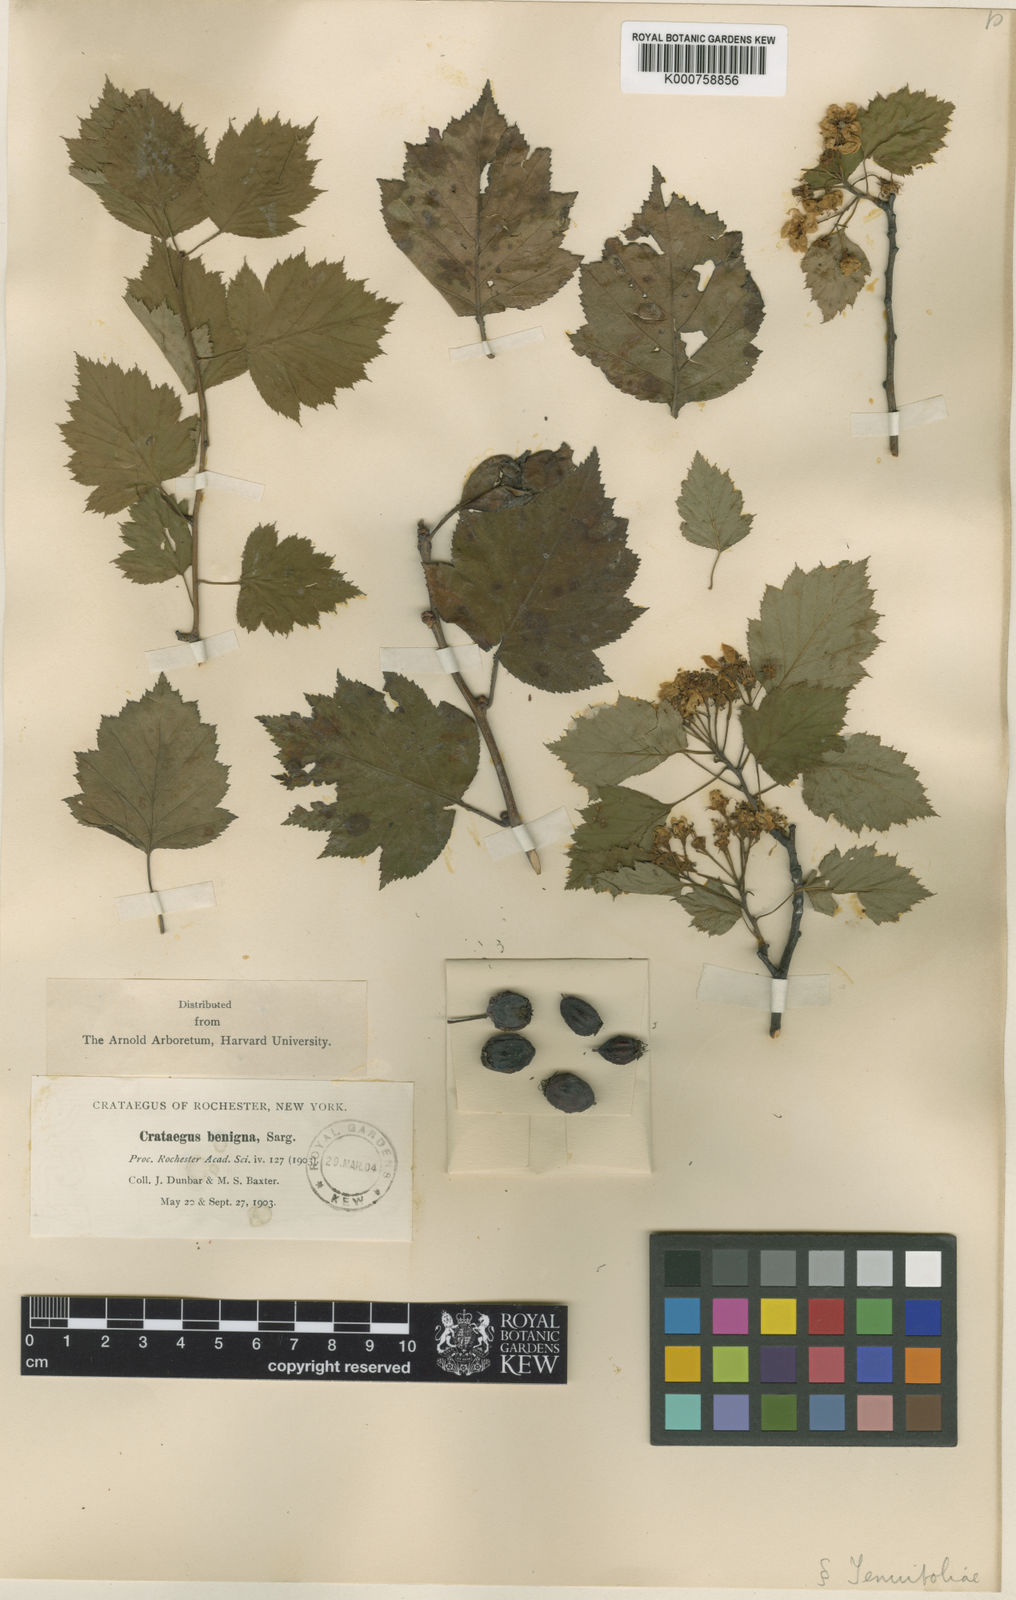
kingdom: Plantae
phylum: Tracheophyta
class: Magnoliopsida
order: Rosales
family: Rosaceae
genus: Crataegus
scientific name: Crataegus macrosperma
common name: Variable hawthorn
